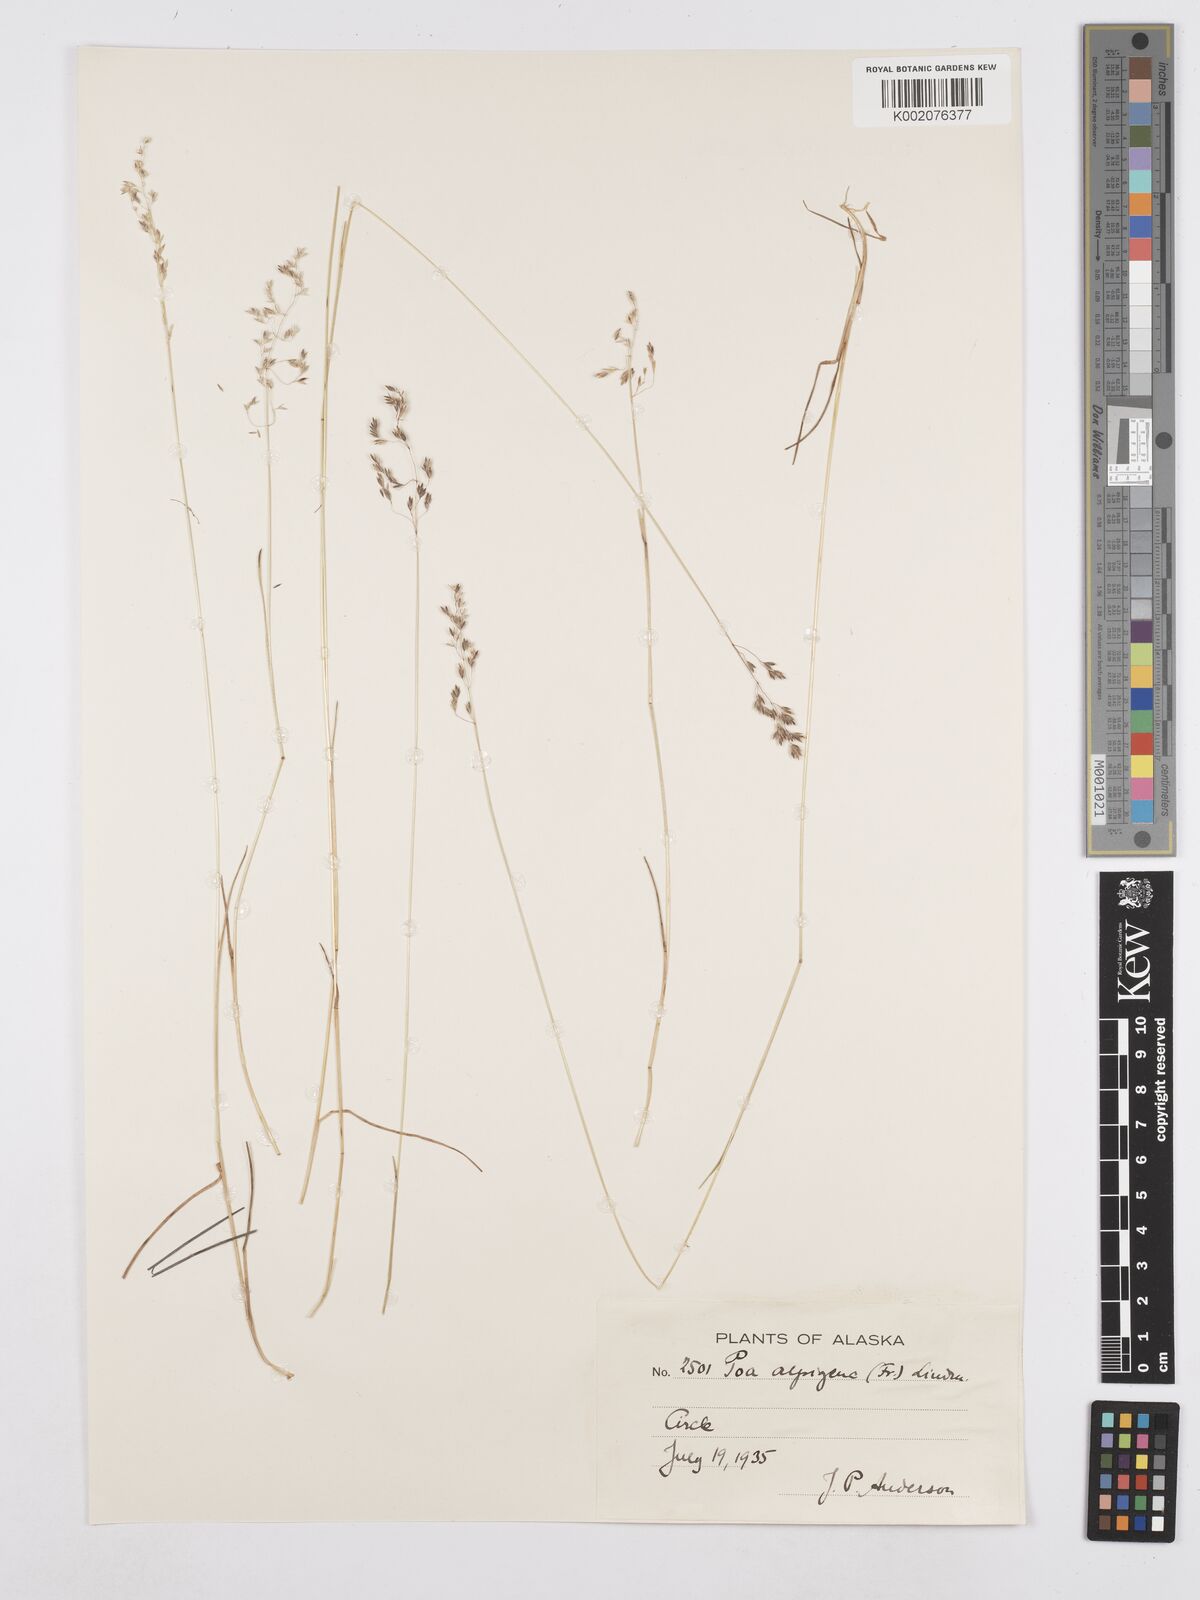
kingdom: Plantae
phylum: Tracheophyta
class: Liliopsida
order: Poales
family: Poaceae
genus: Poa
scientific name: Poa alpigena
